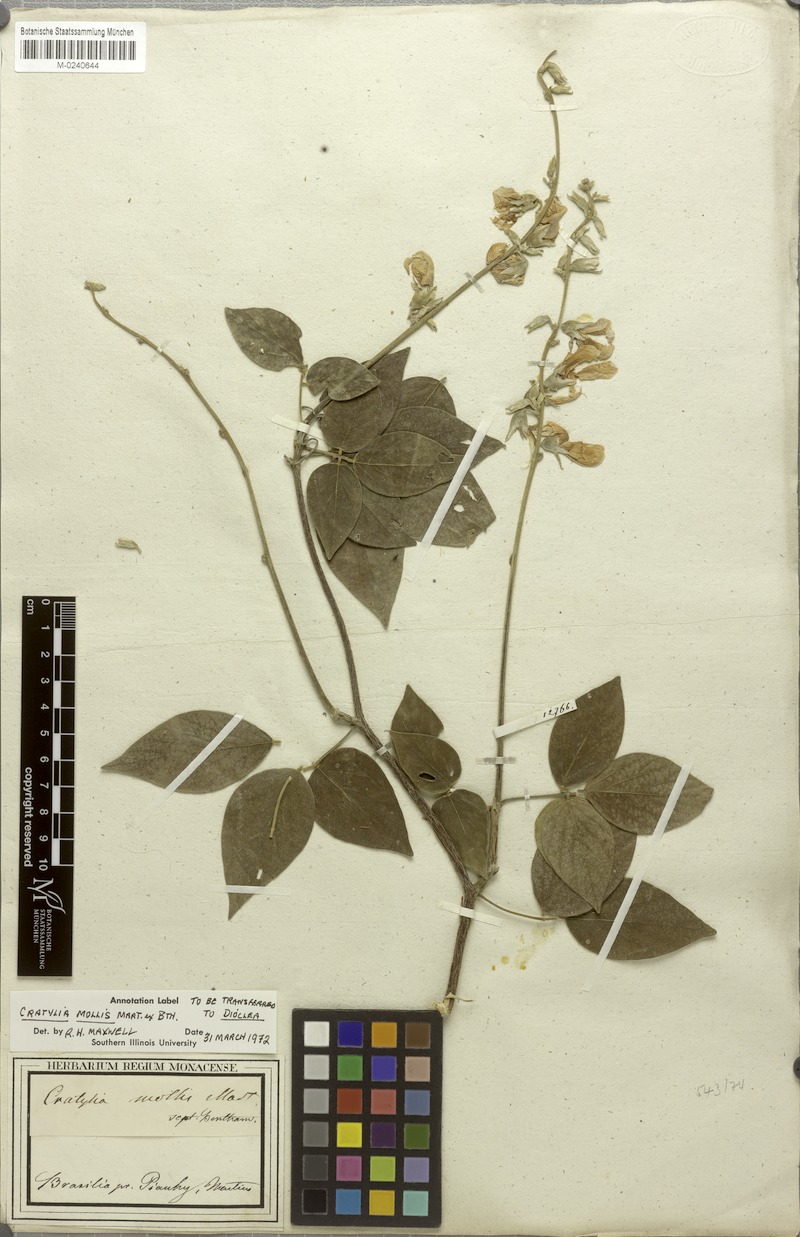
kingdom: Plantae
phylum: Tracheophyta
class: Magnoliopsida
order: Fabales
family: Fabaceae
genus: Cratylia
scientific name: Cratylia mollis
